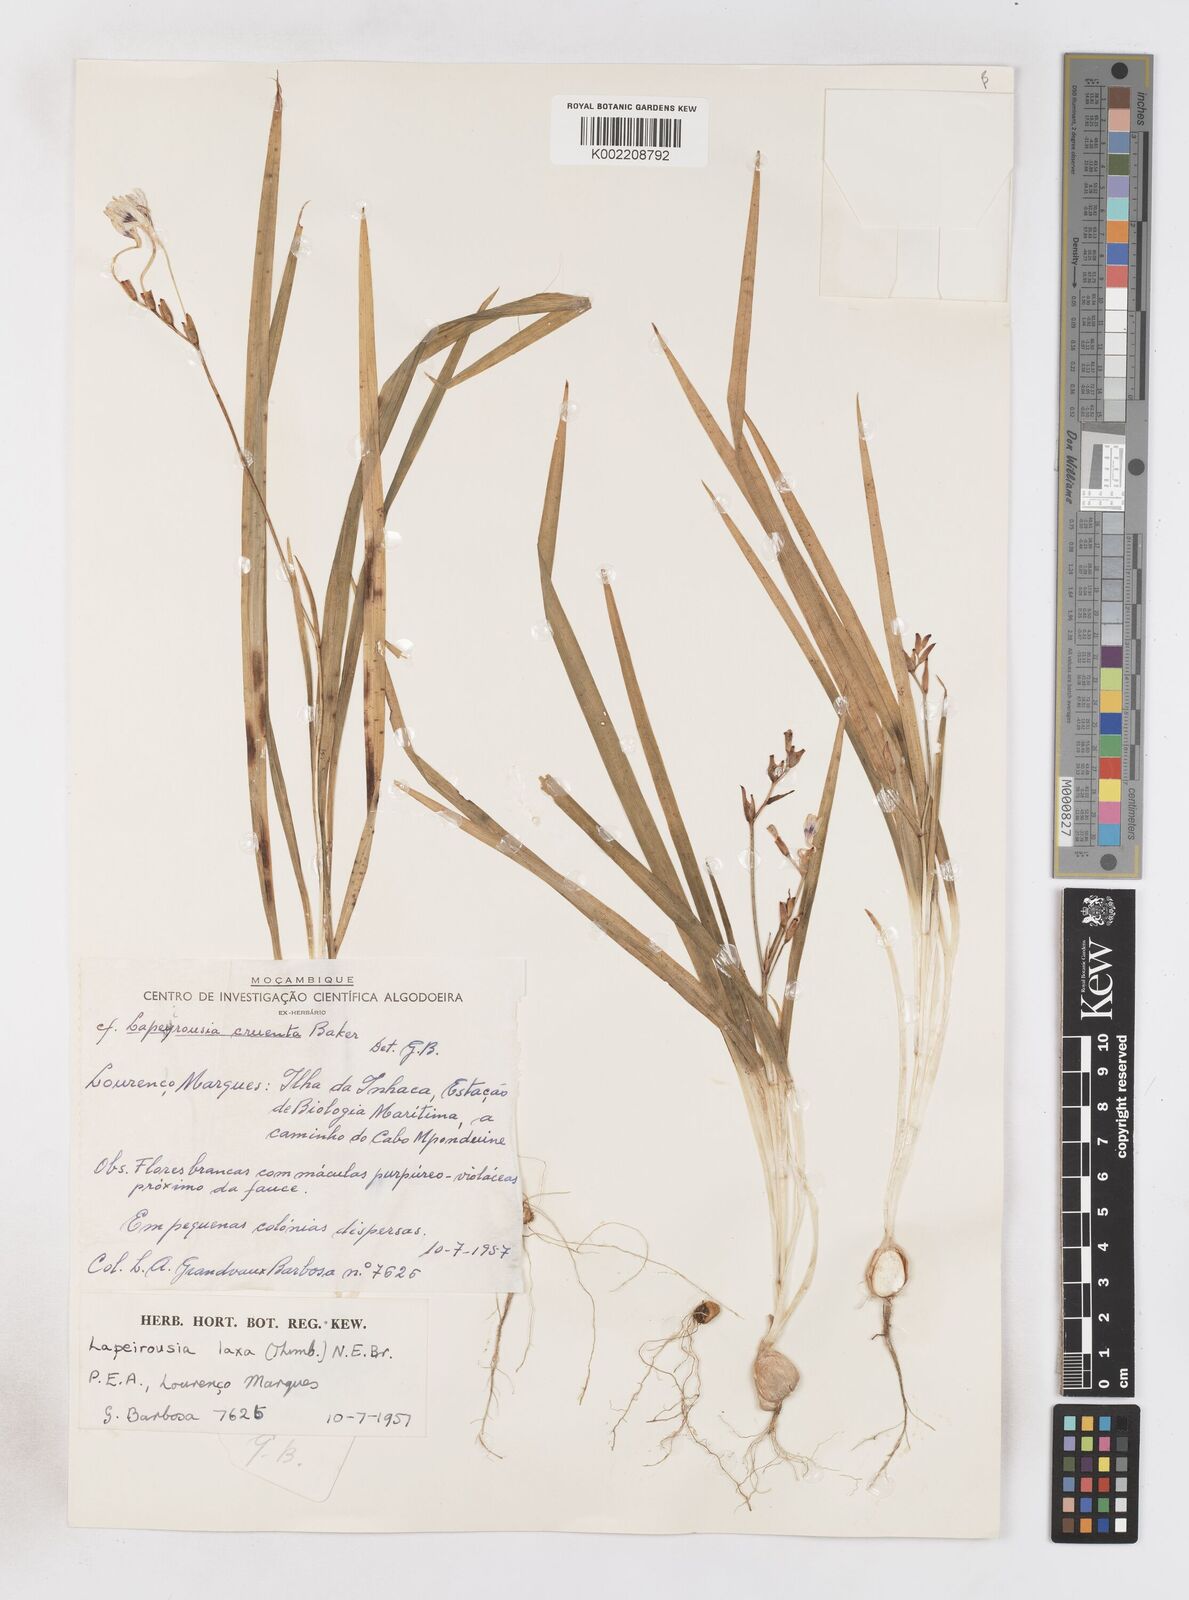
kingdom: Plantae
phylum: Tracheophyta
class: Liliopsida
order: Asparagales
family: Iridaceae
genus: Freesia
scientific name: Freesia laxa
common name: False freesia
